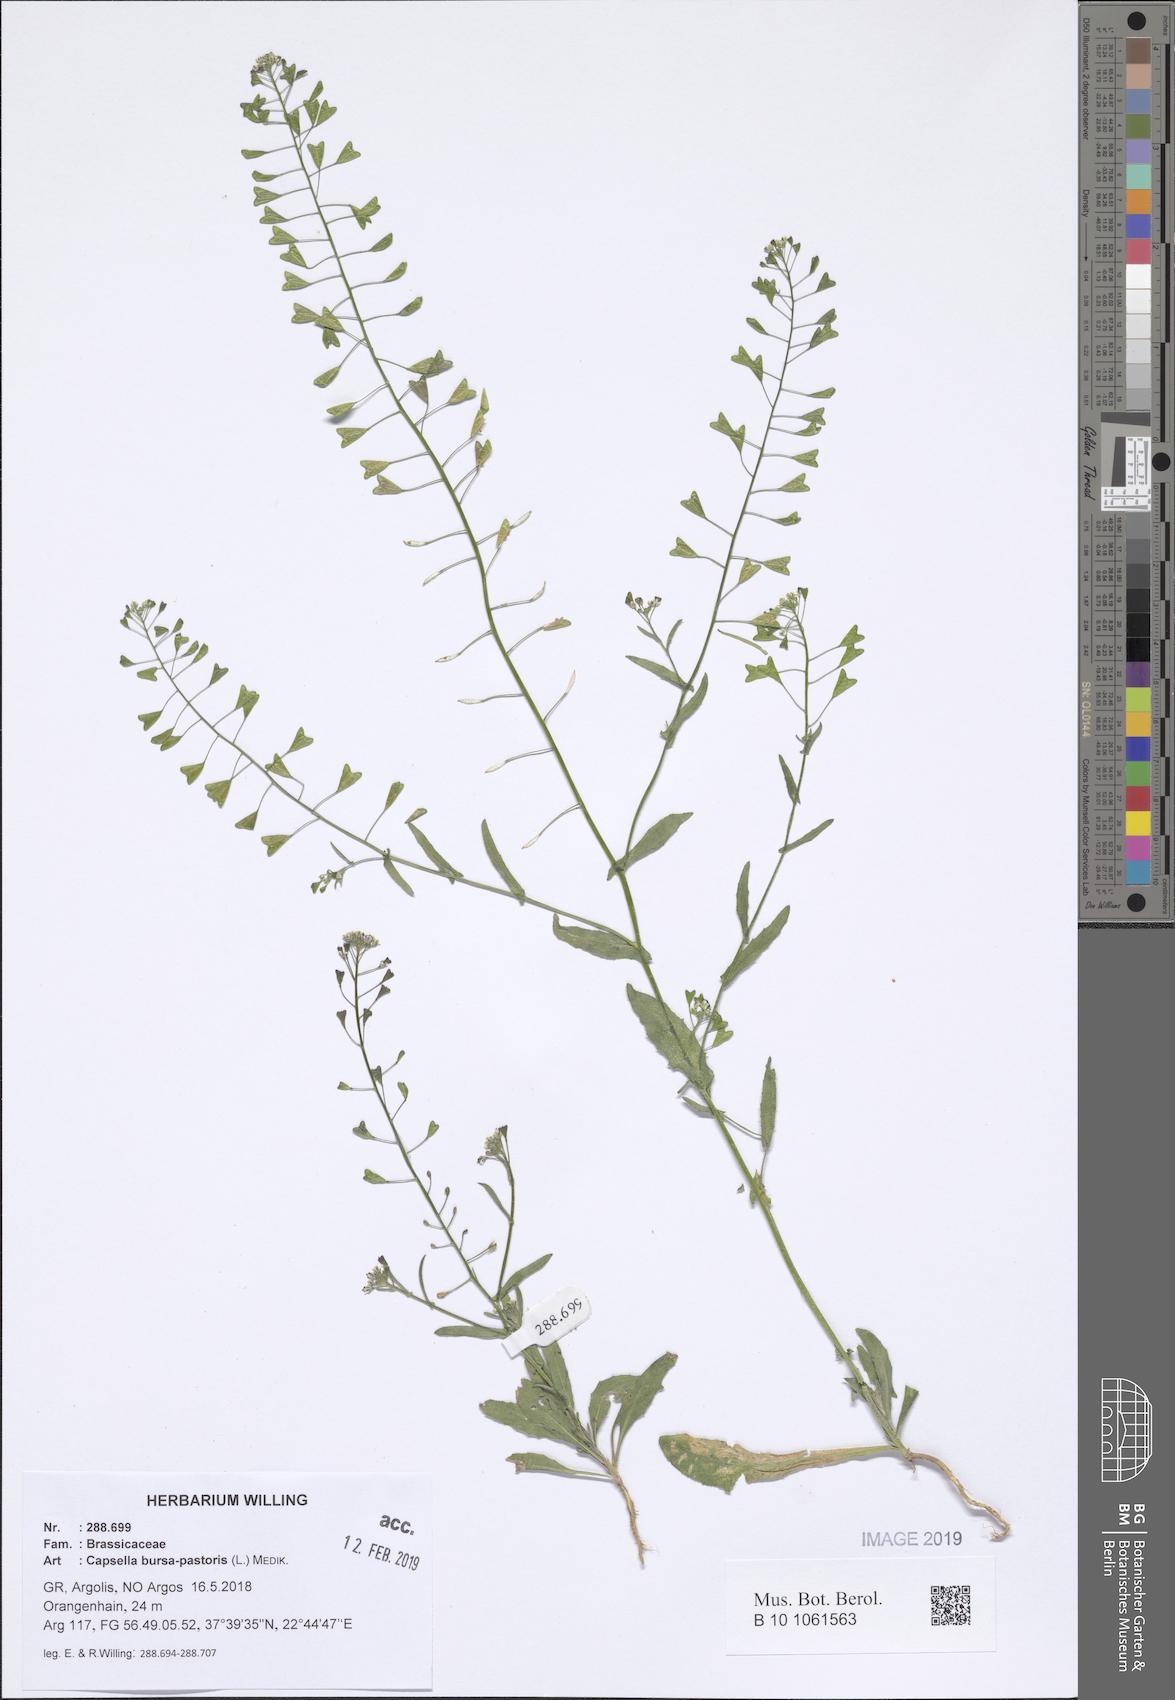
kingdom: Plantae
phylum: Tracheophyta
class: Magnoliopsida
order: Brassicales
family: Brassicaceae
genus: Capsella
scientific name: Capsella bursa-pastoris
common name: Shepherd's purse
